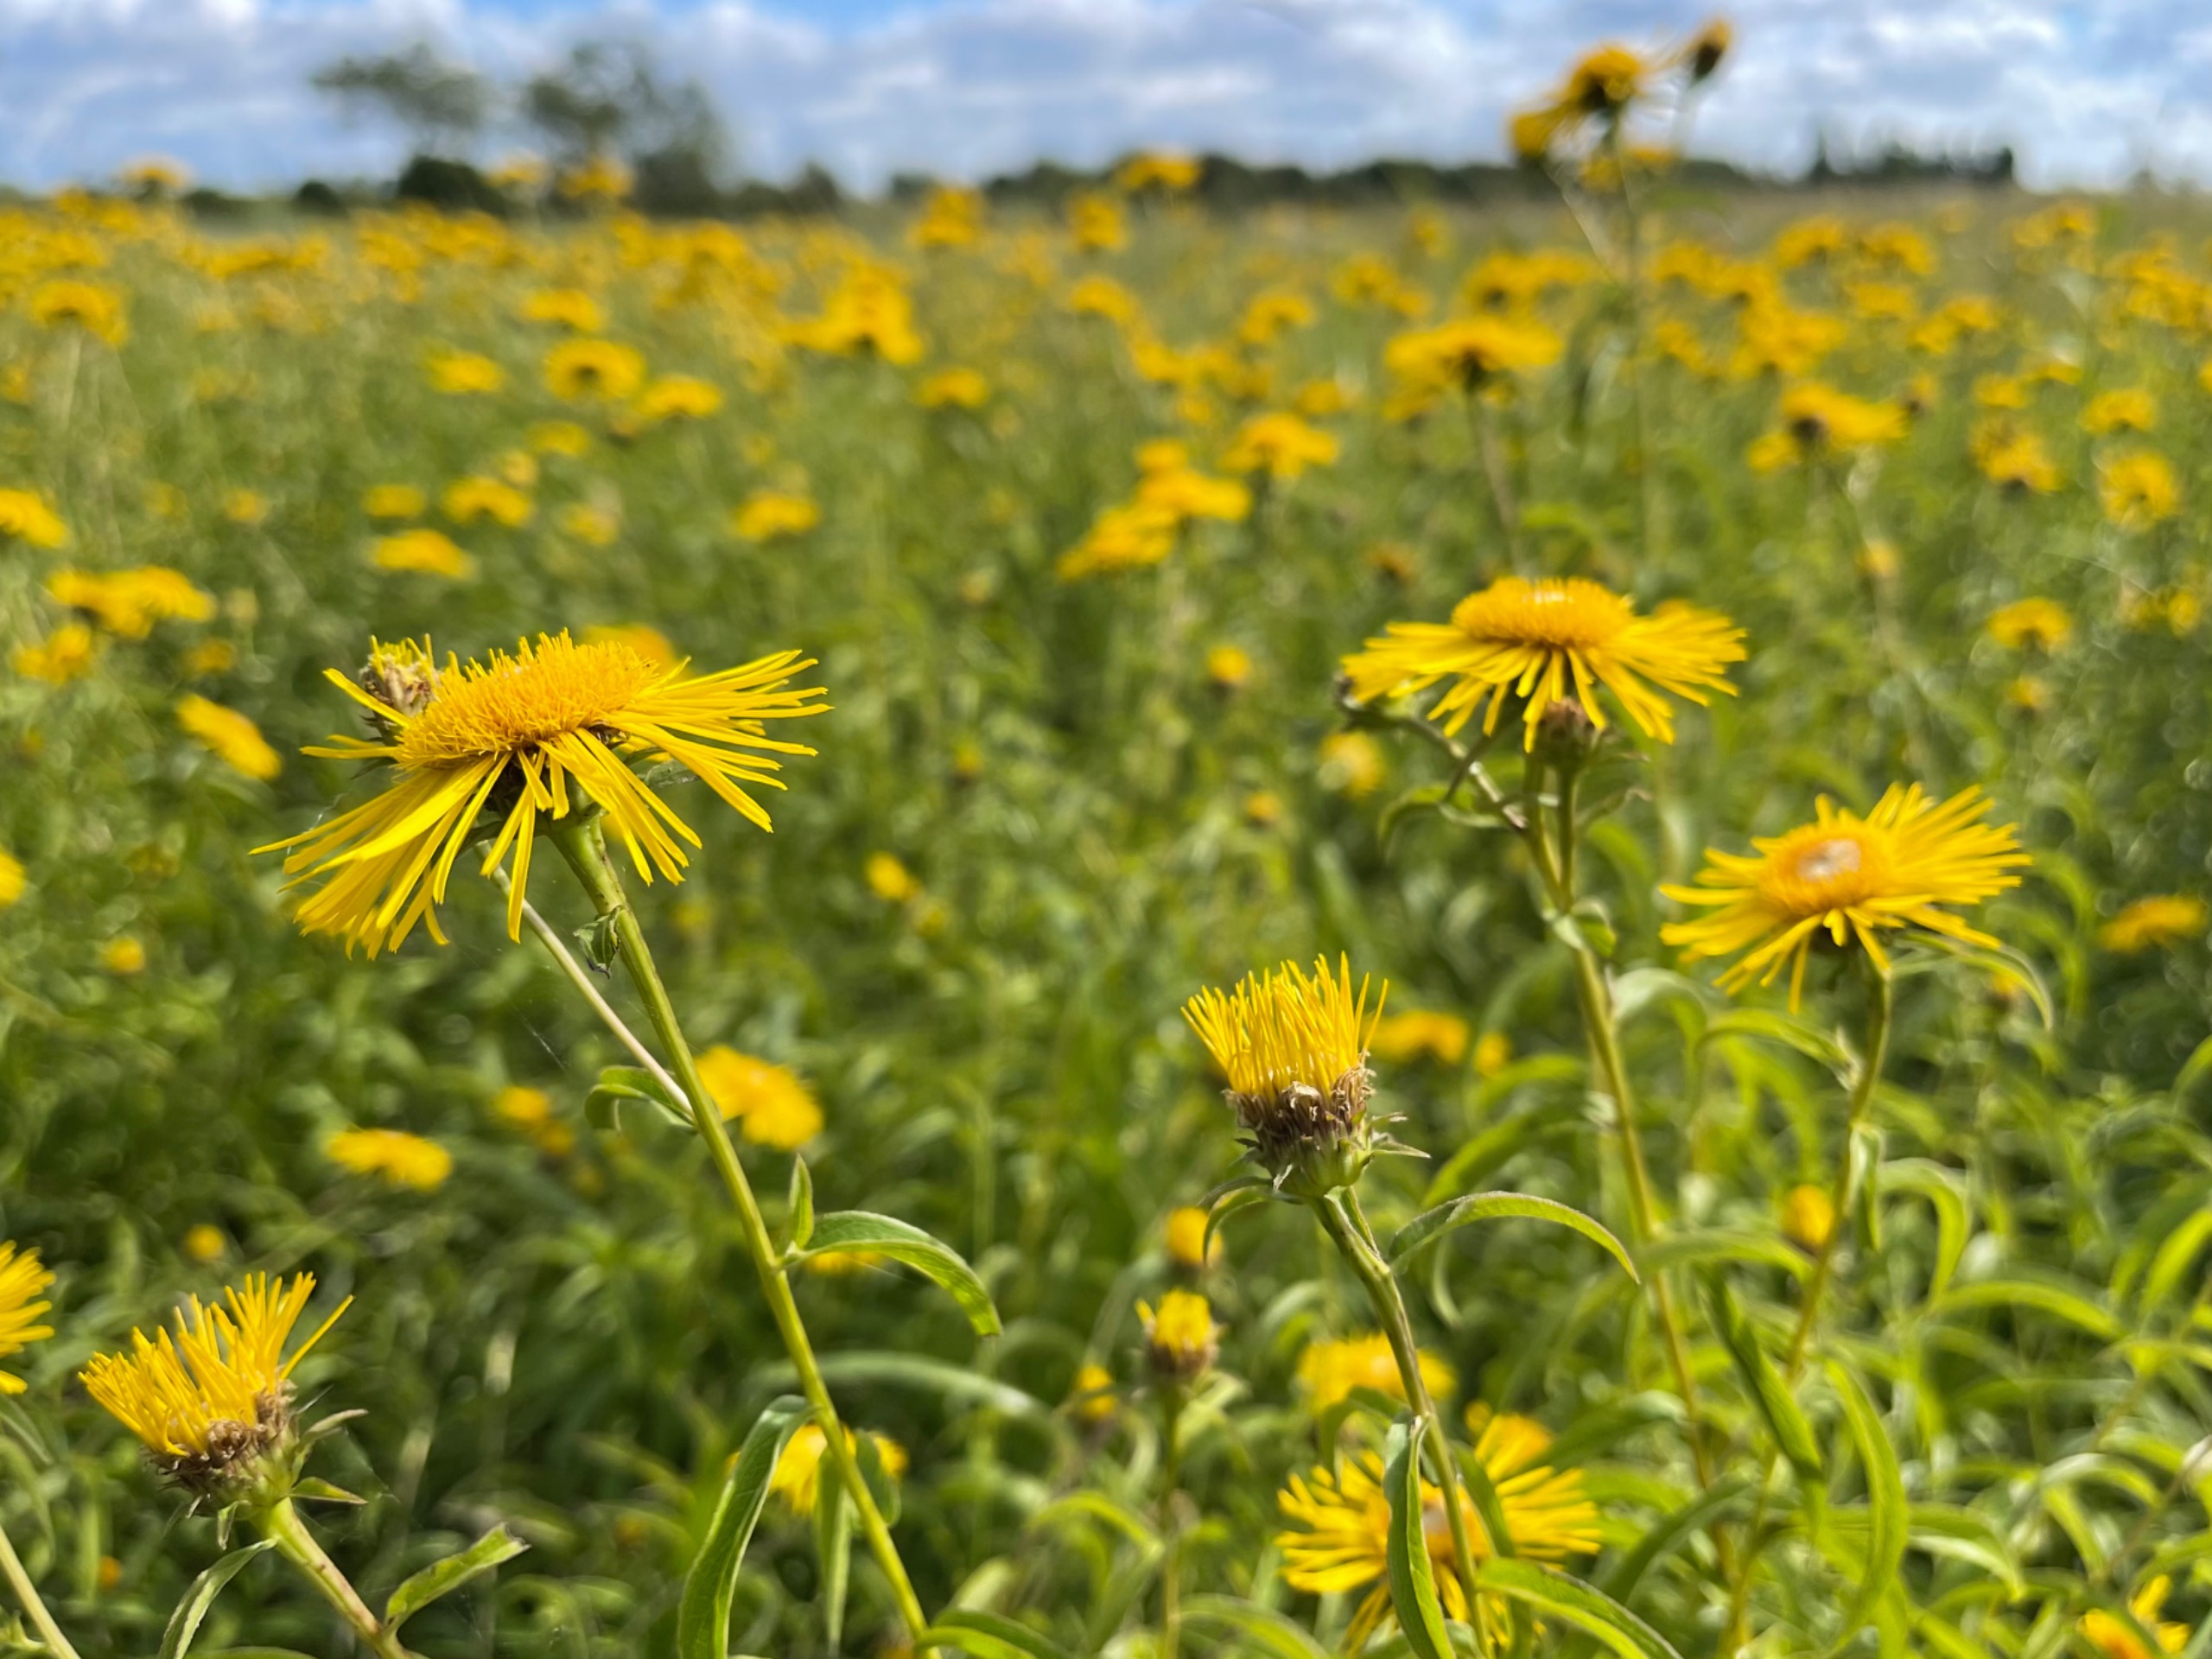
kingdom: Plantae
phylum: Tracheophyta
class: Magnoliopsida
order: Asterales
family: Asteraceae
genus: Pentanema
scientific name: Pentanema salicinum
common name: Pile-alant
